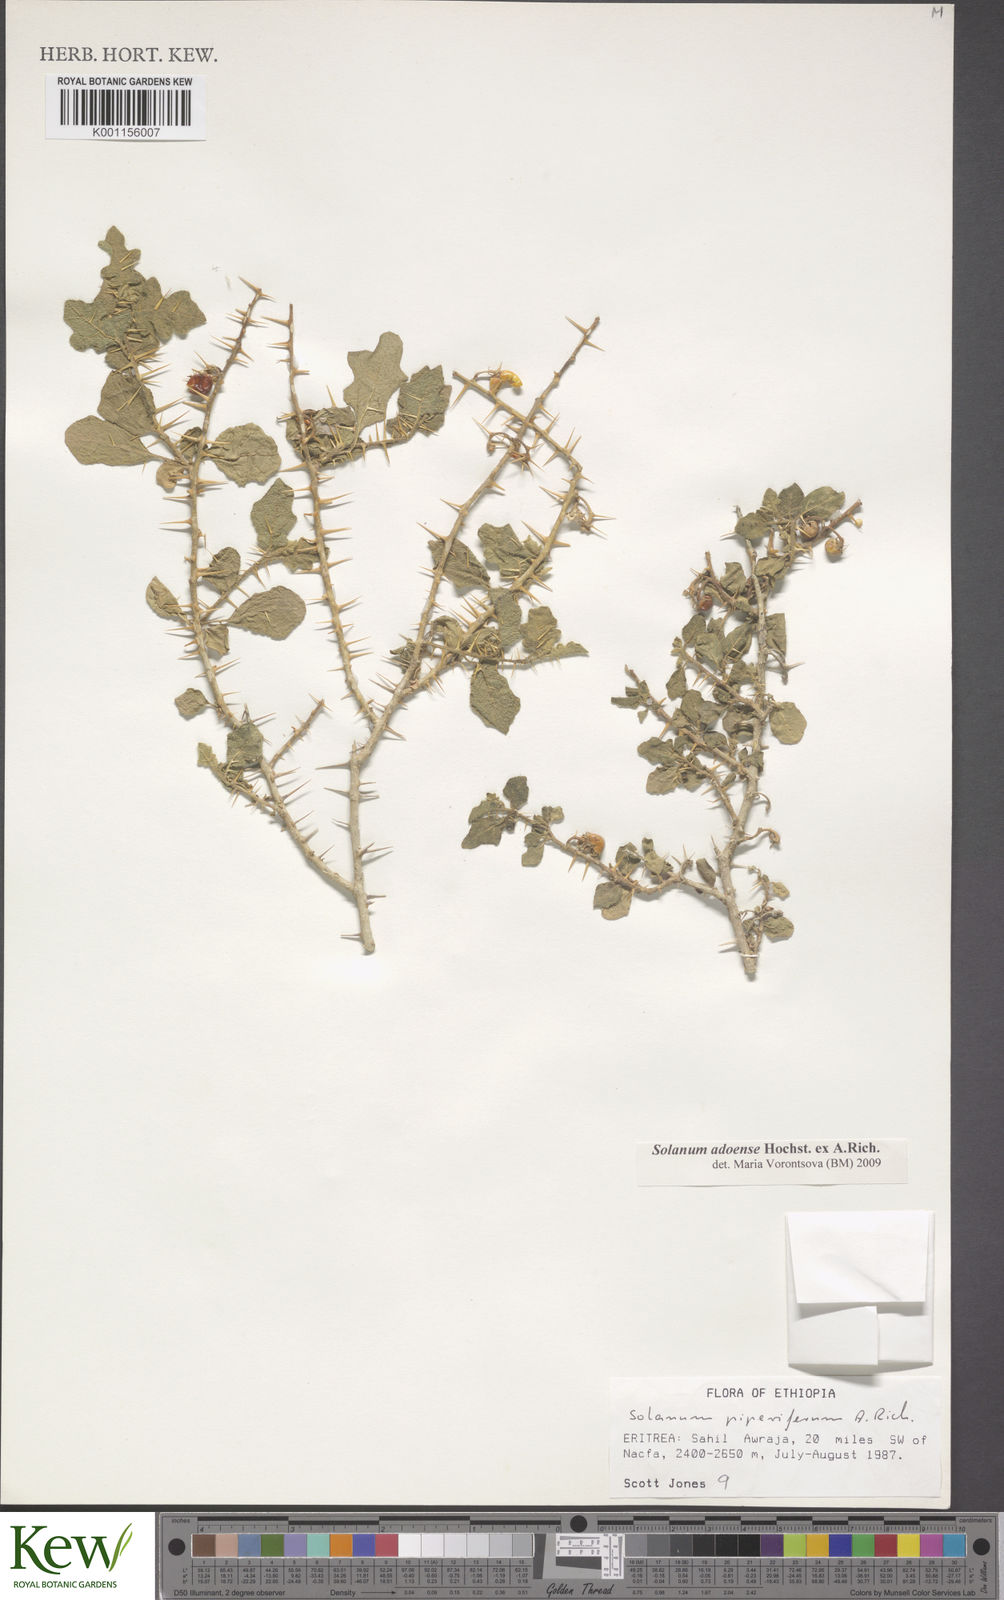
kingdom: Plantae
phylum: Tracheophyta
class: Magnoliopsida
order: Solanales
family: Solanaceae
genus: Solanum
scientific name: Solanum adoense
